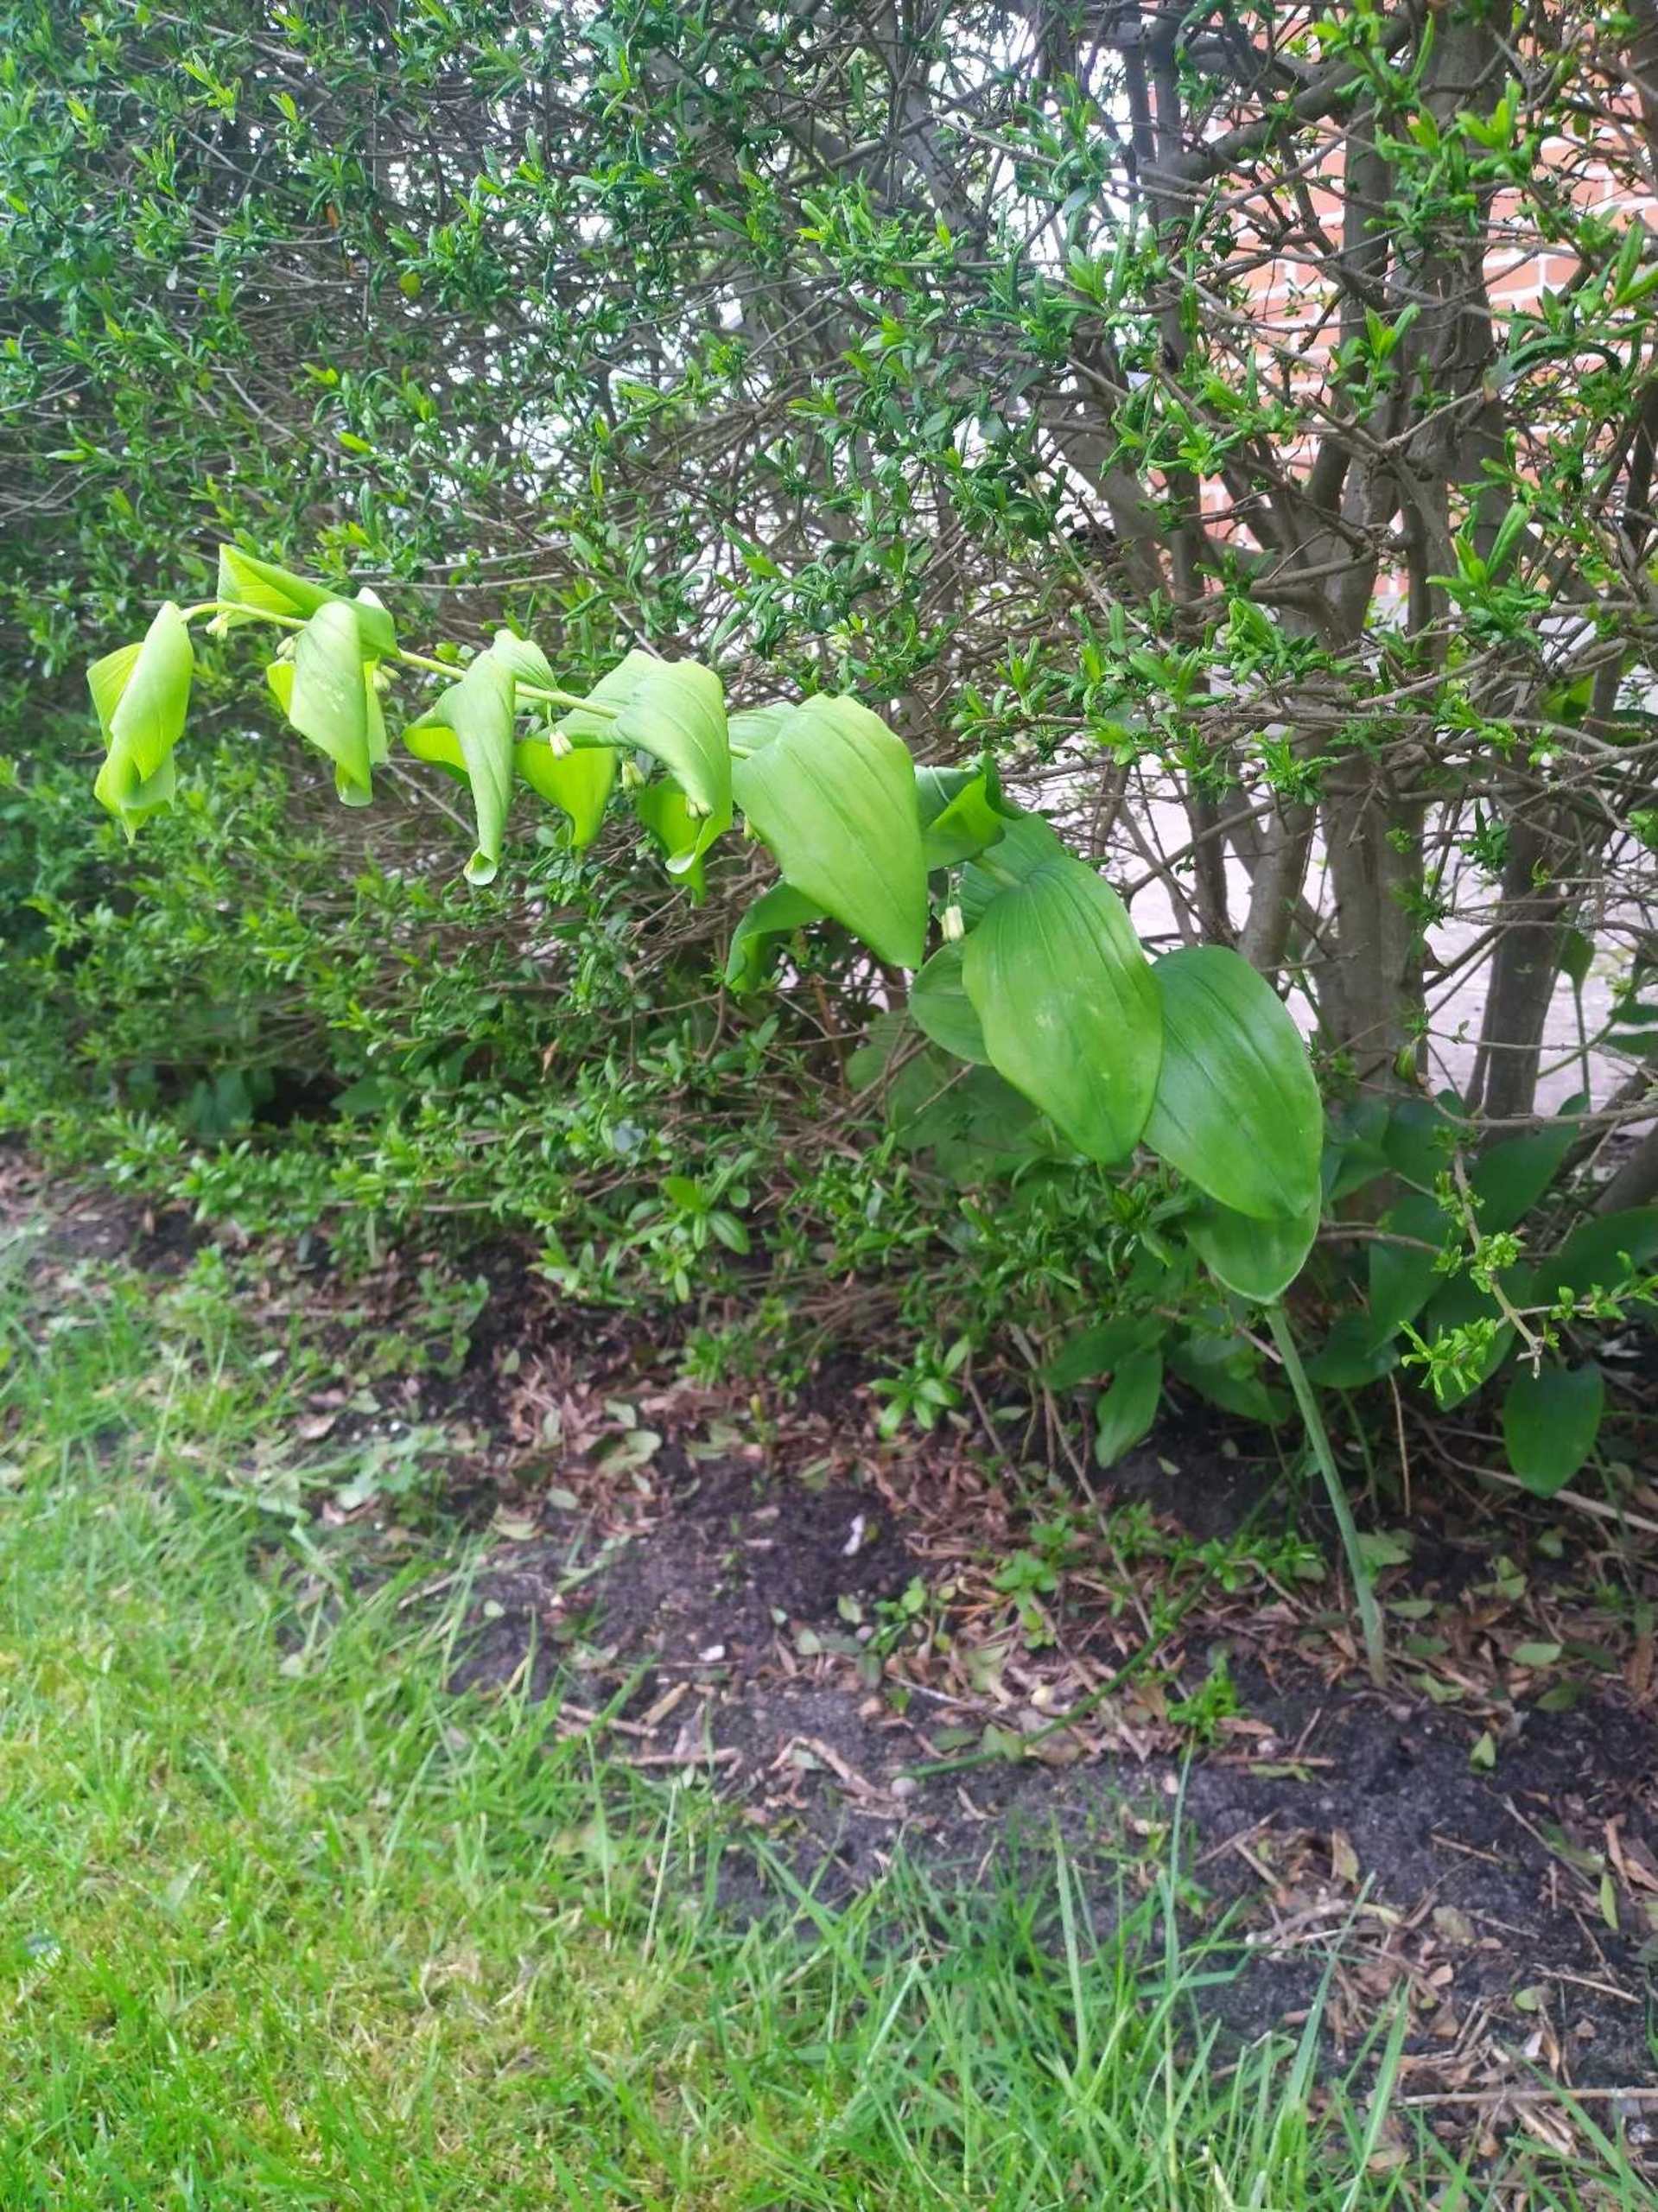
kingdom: Plantae
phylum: Tracheophyta
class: Liliopsida
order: Asparagales
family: Asparagaceae
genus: Polygonatum
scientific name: Polygonatum multiflorum
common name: Stor konval
